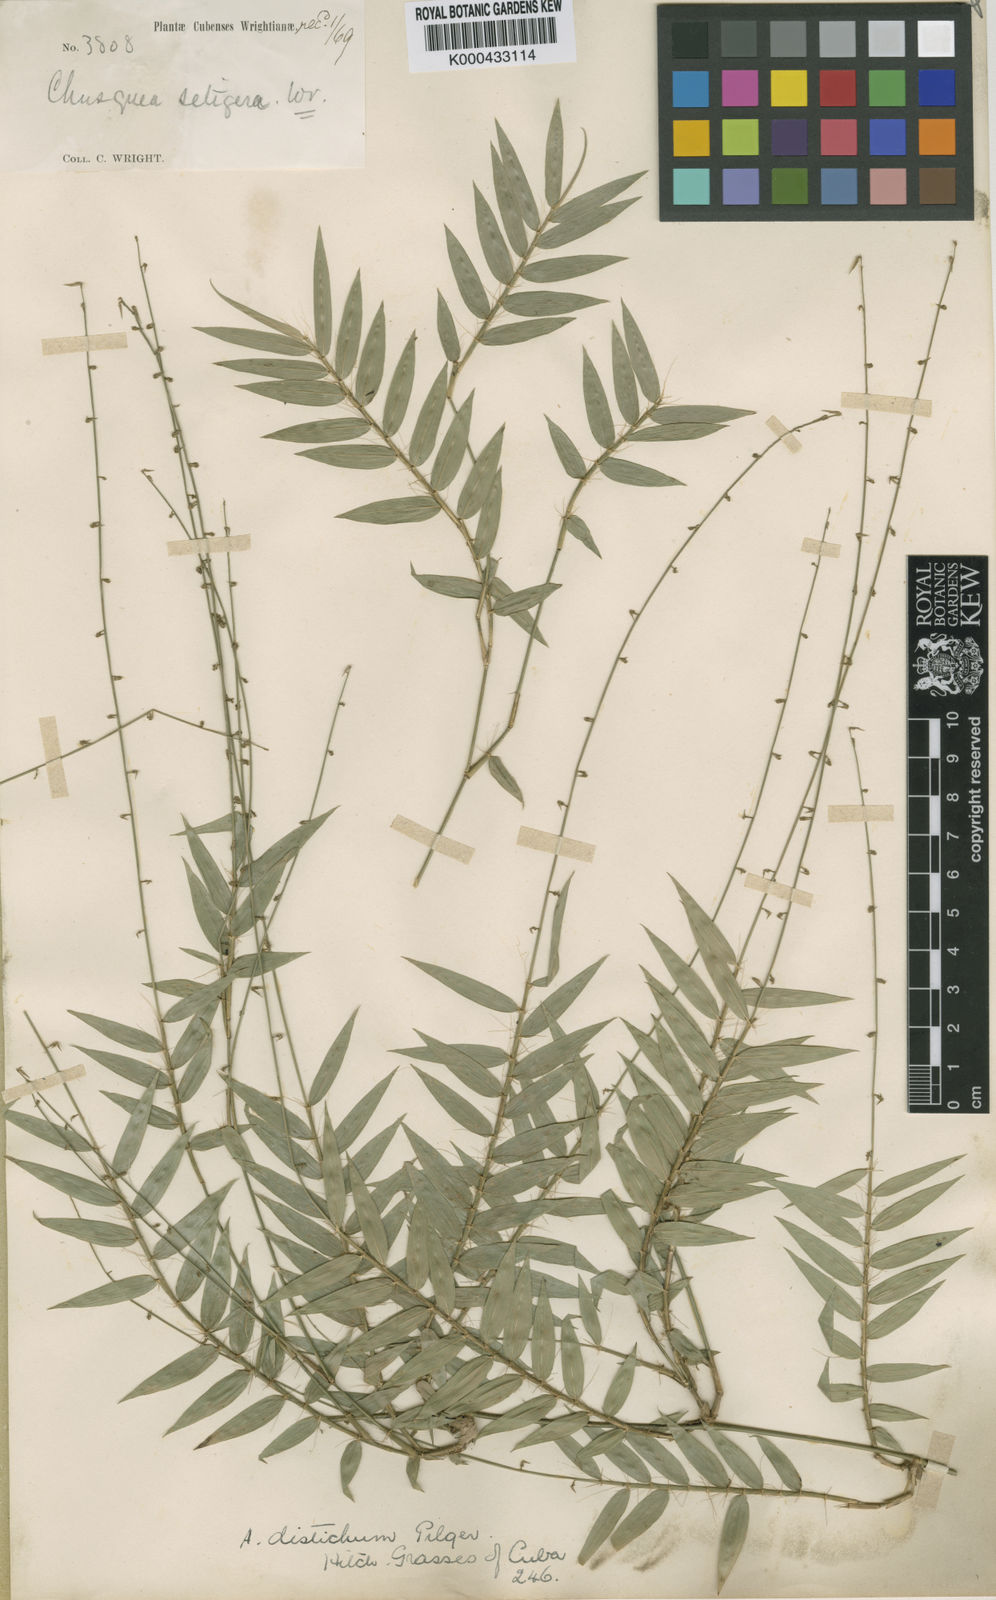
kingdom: Plantae
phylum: Tracheophyta
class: Liliopsida
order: Poales
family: Poaceae
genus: Arthrostylidium
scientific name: Arthrostylidium distichum
